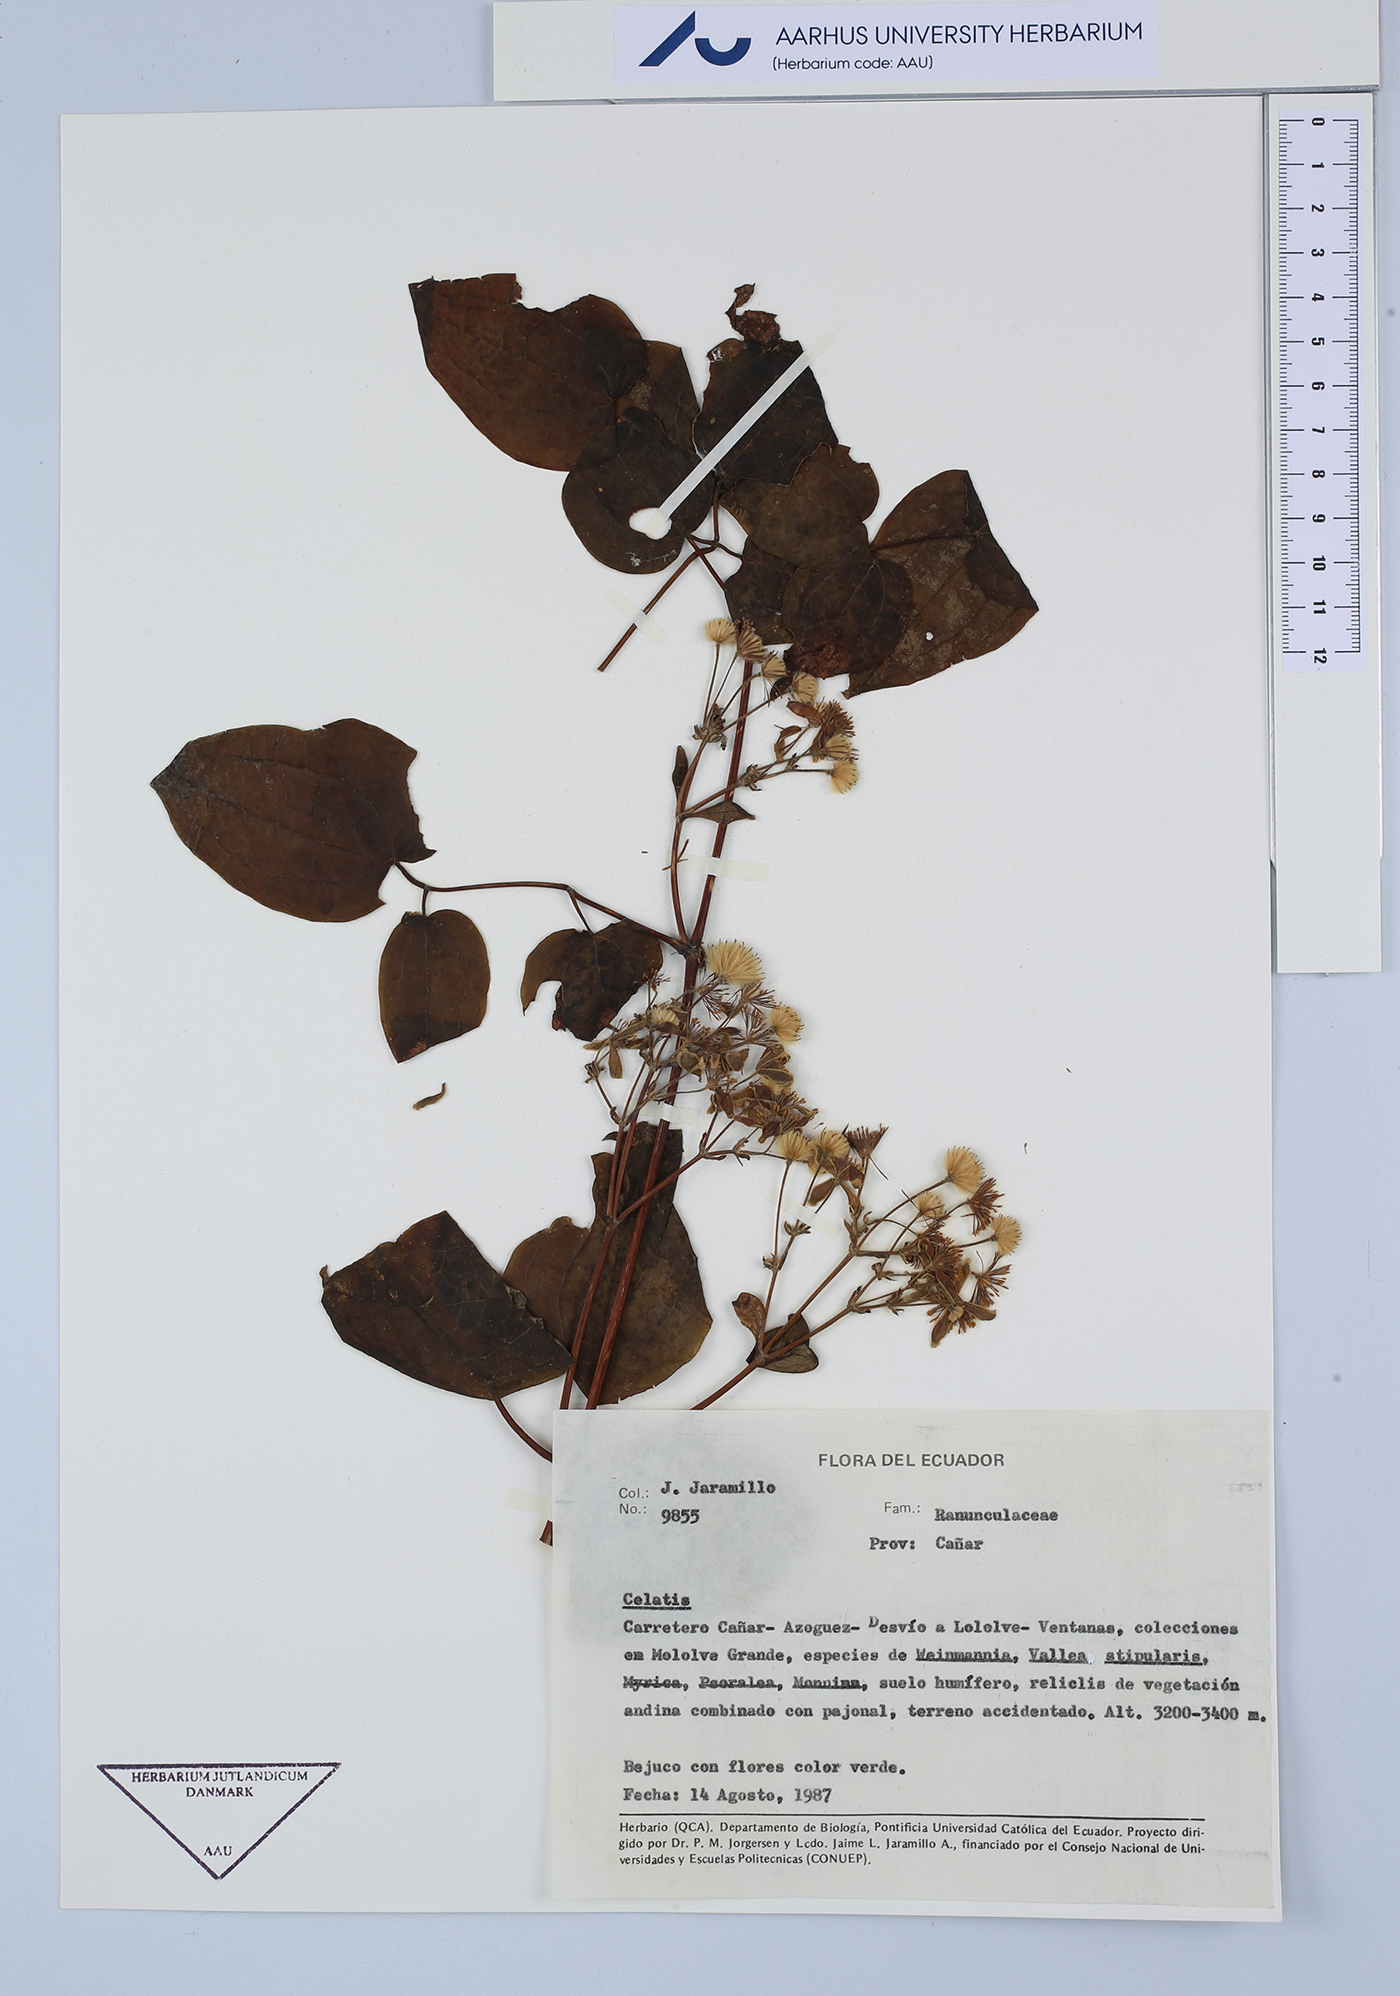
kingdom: Plantae
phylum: Tracheophyta
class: Magnoliopsida
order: Ranunculales
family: Ranunculaceae
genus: Clematis
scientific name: Clematis
